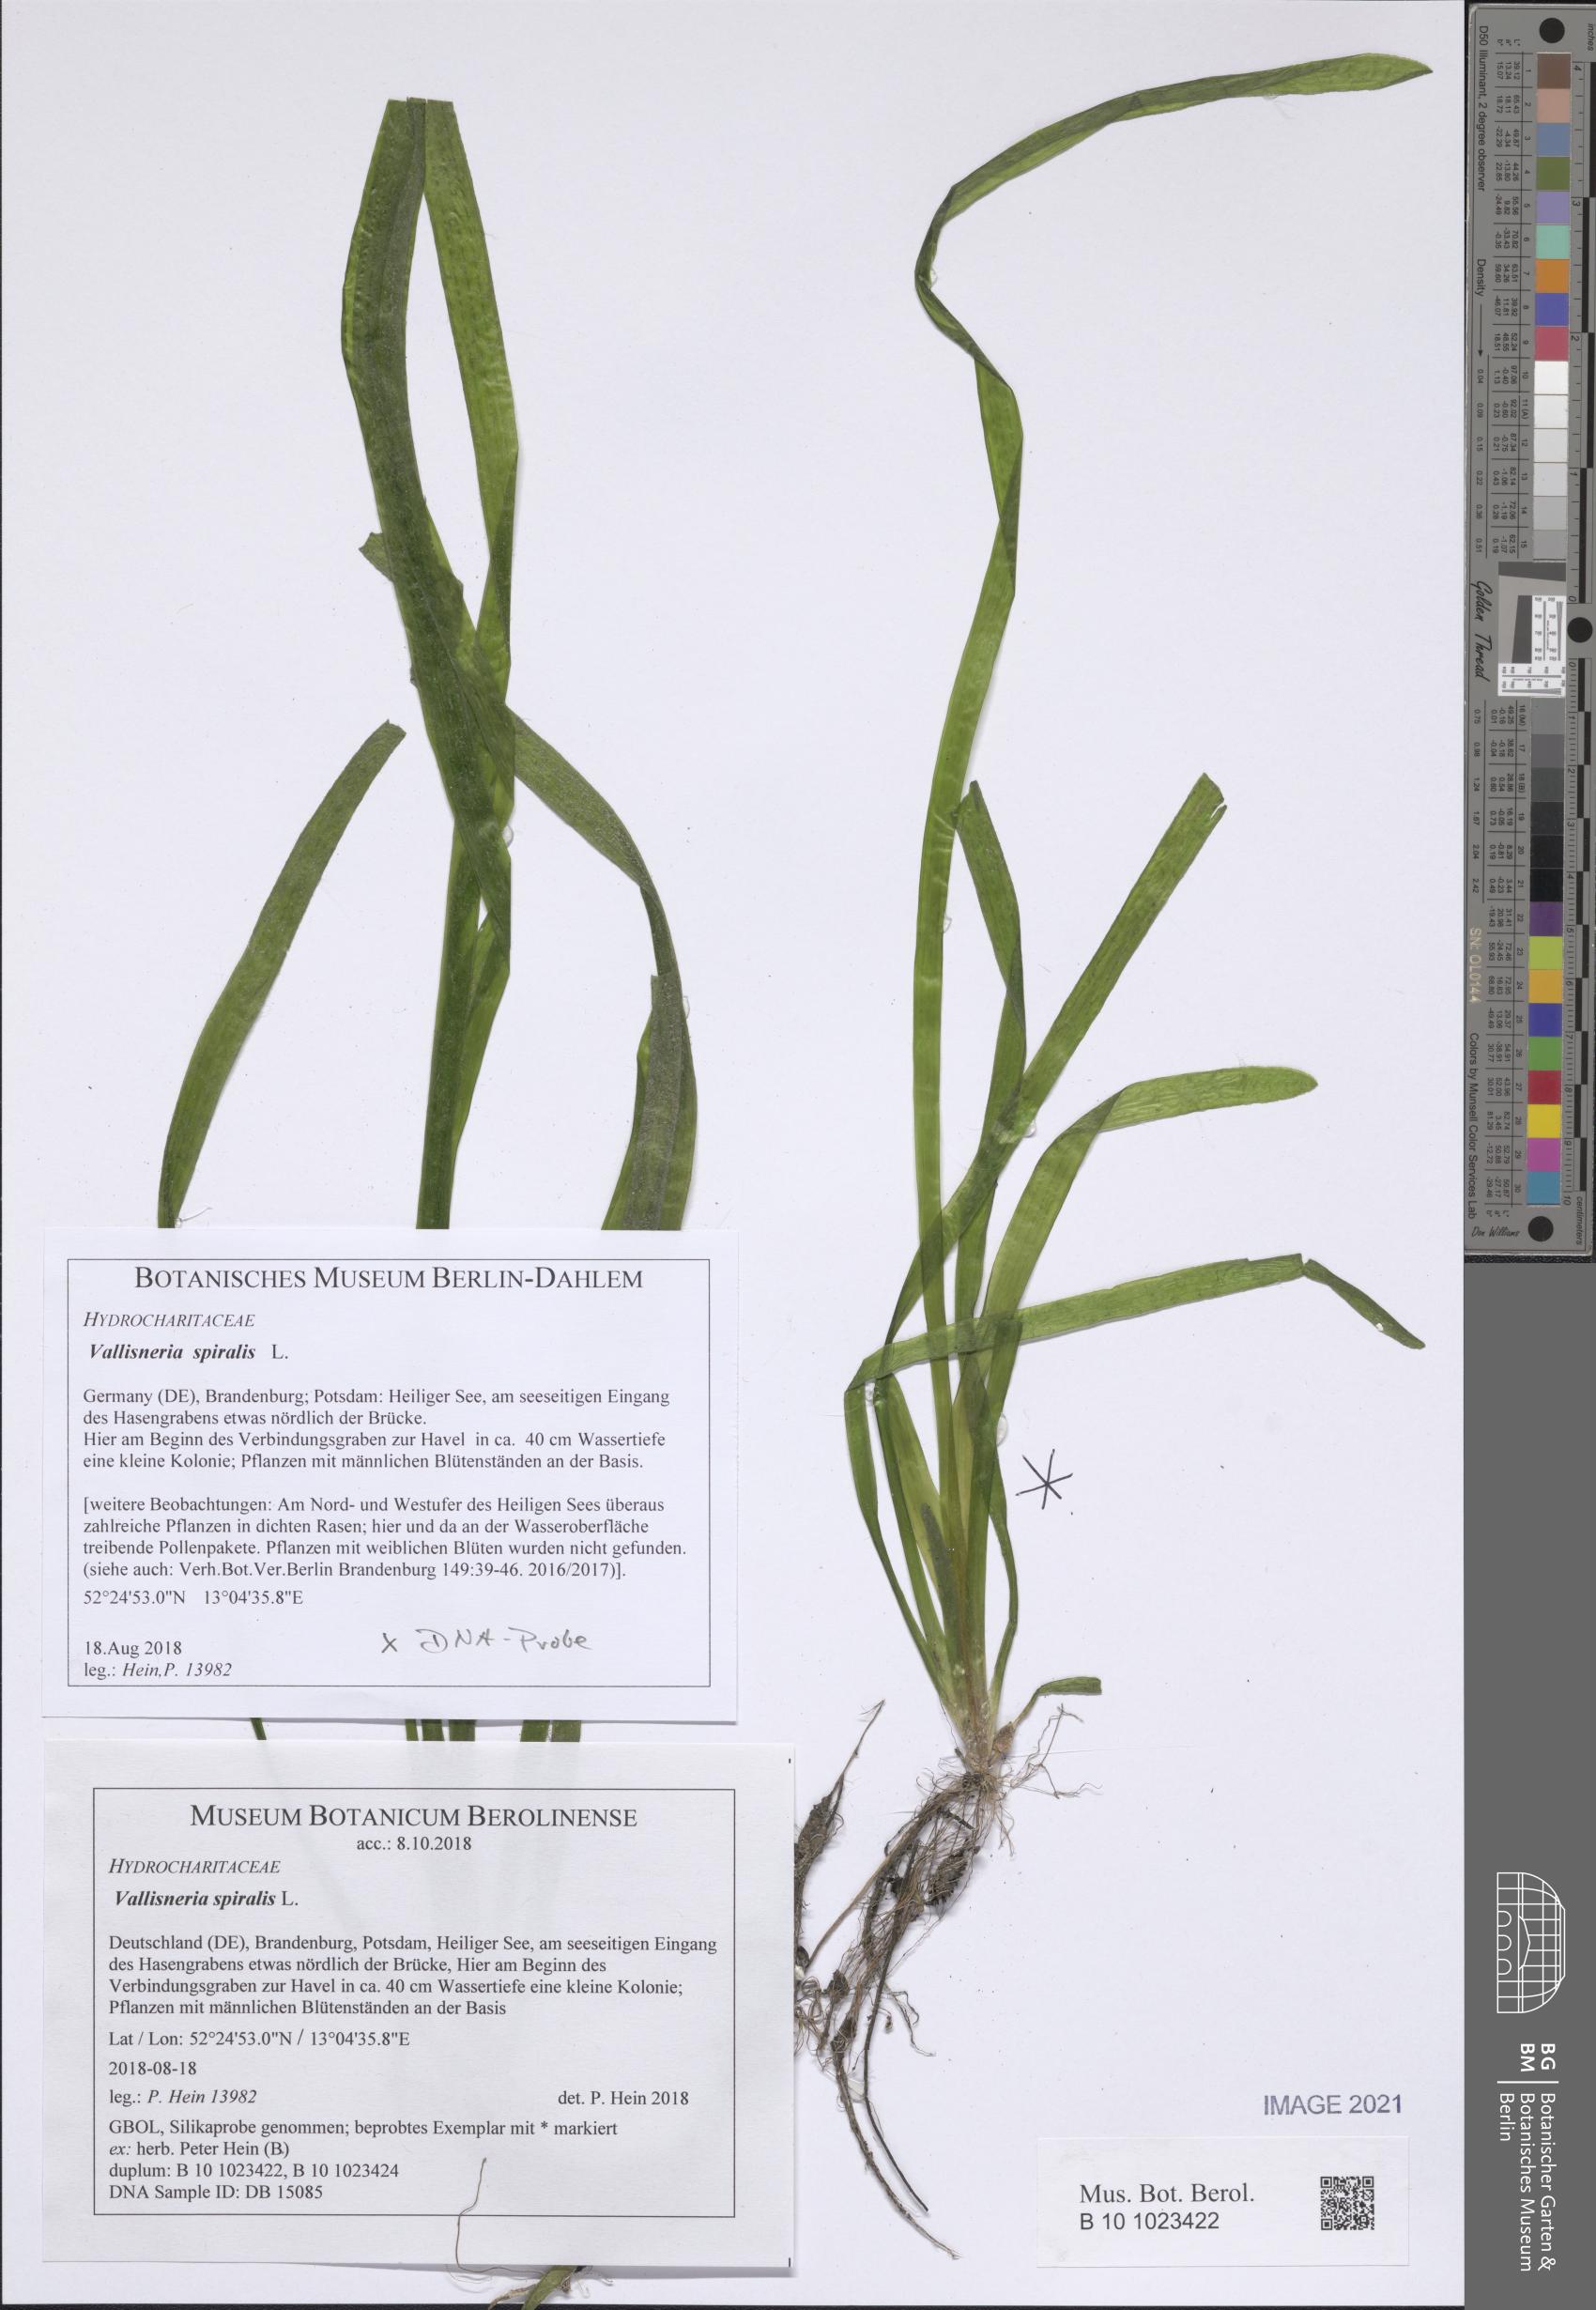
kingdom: Plantae
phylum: Tracheophyta
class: Liliopsida
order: Alismatales
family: Hydrocharitaceae
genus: Vallisneria
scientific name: Vallisneria spiralis
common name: Tapegrass
